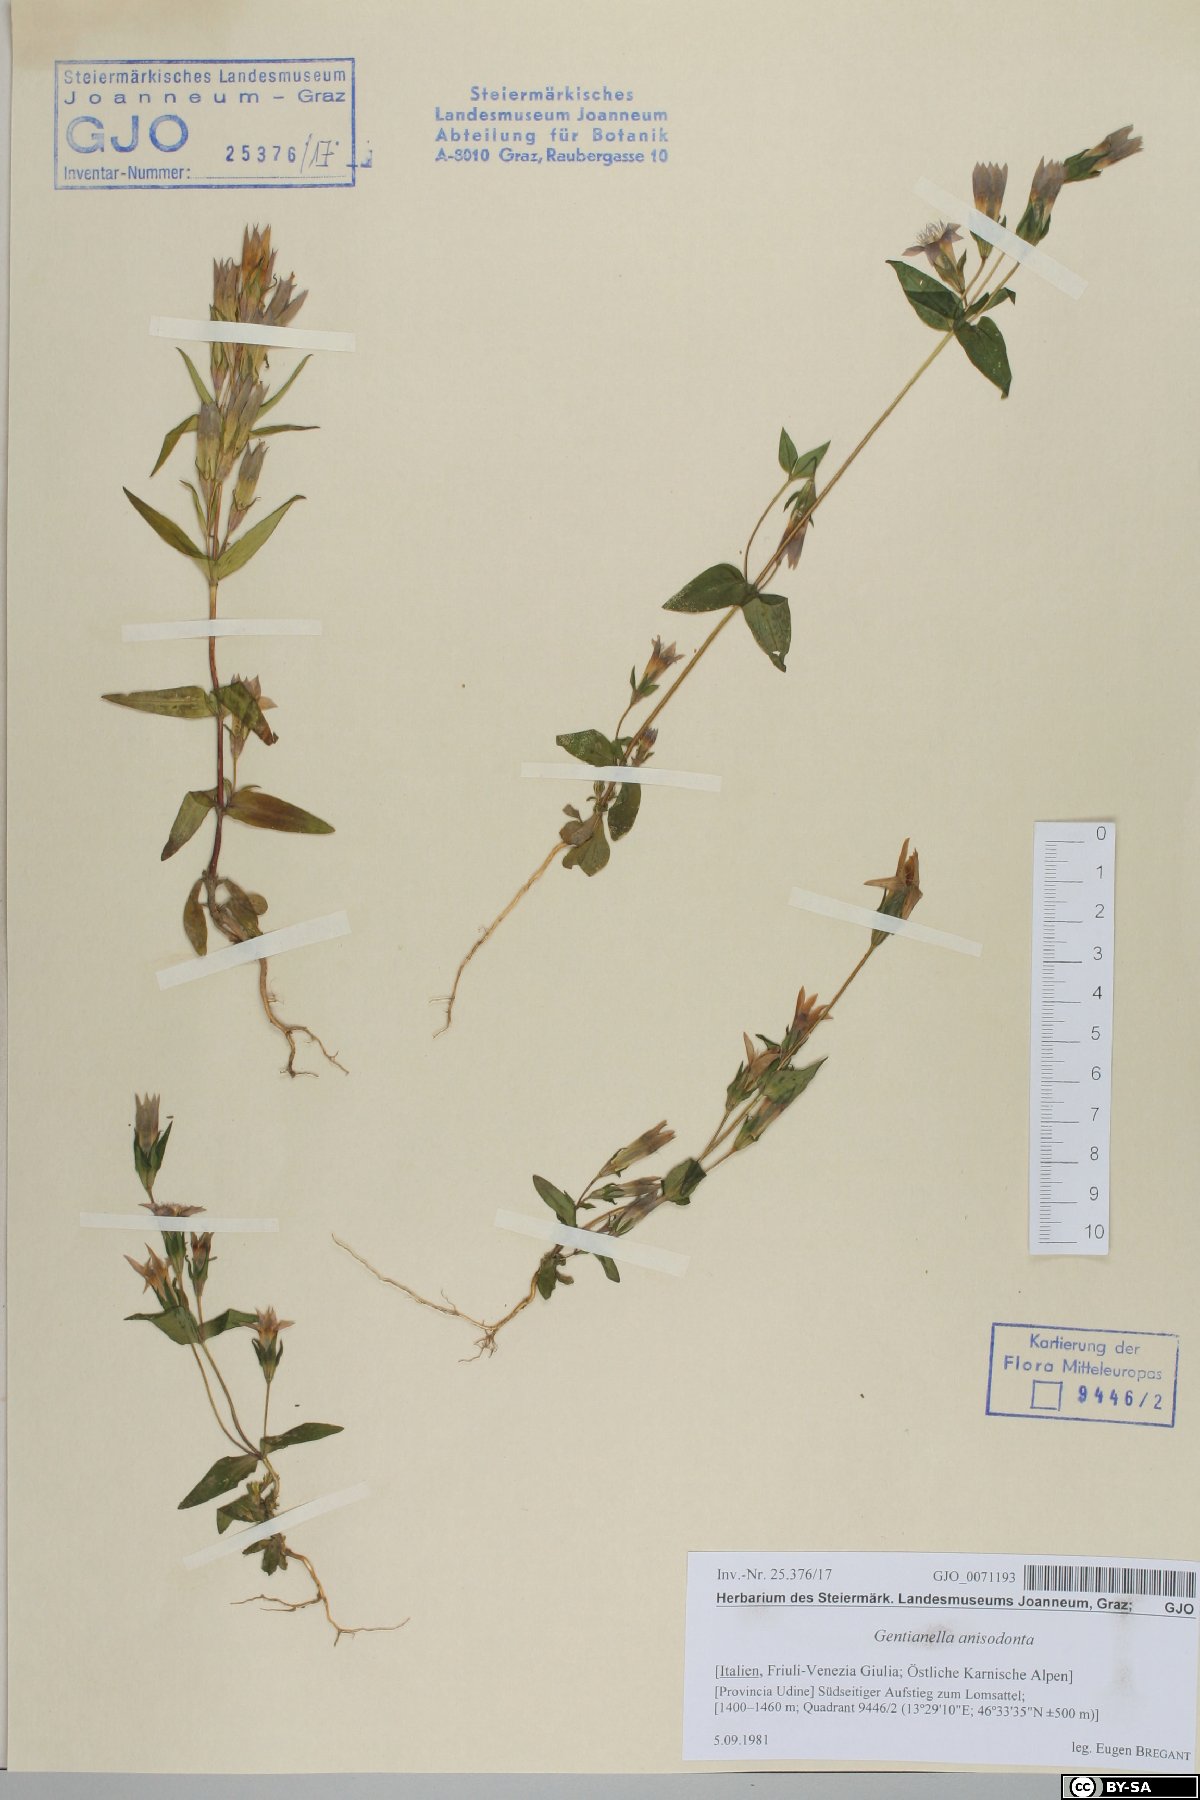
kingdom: Plantae
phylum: Tracheophyta
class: Magnoliopsida
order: Gentianales
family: Gentianaceae
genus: Gentianella
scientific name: Gentianella anisodonta
